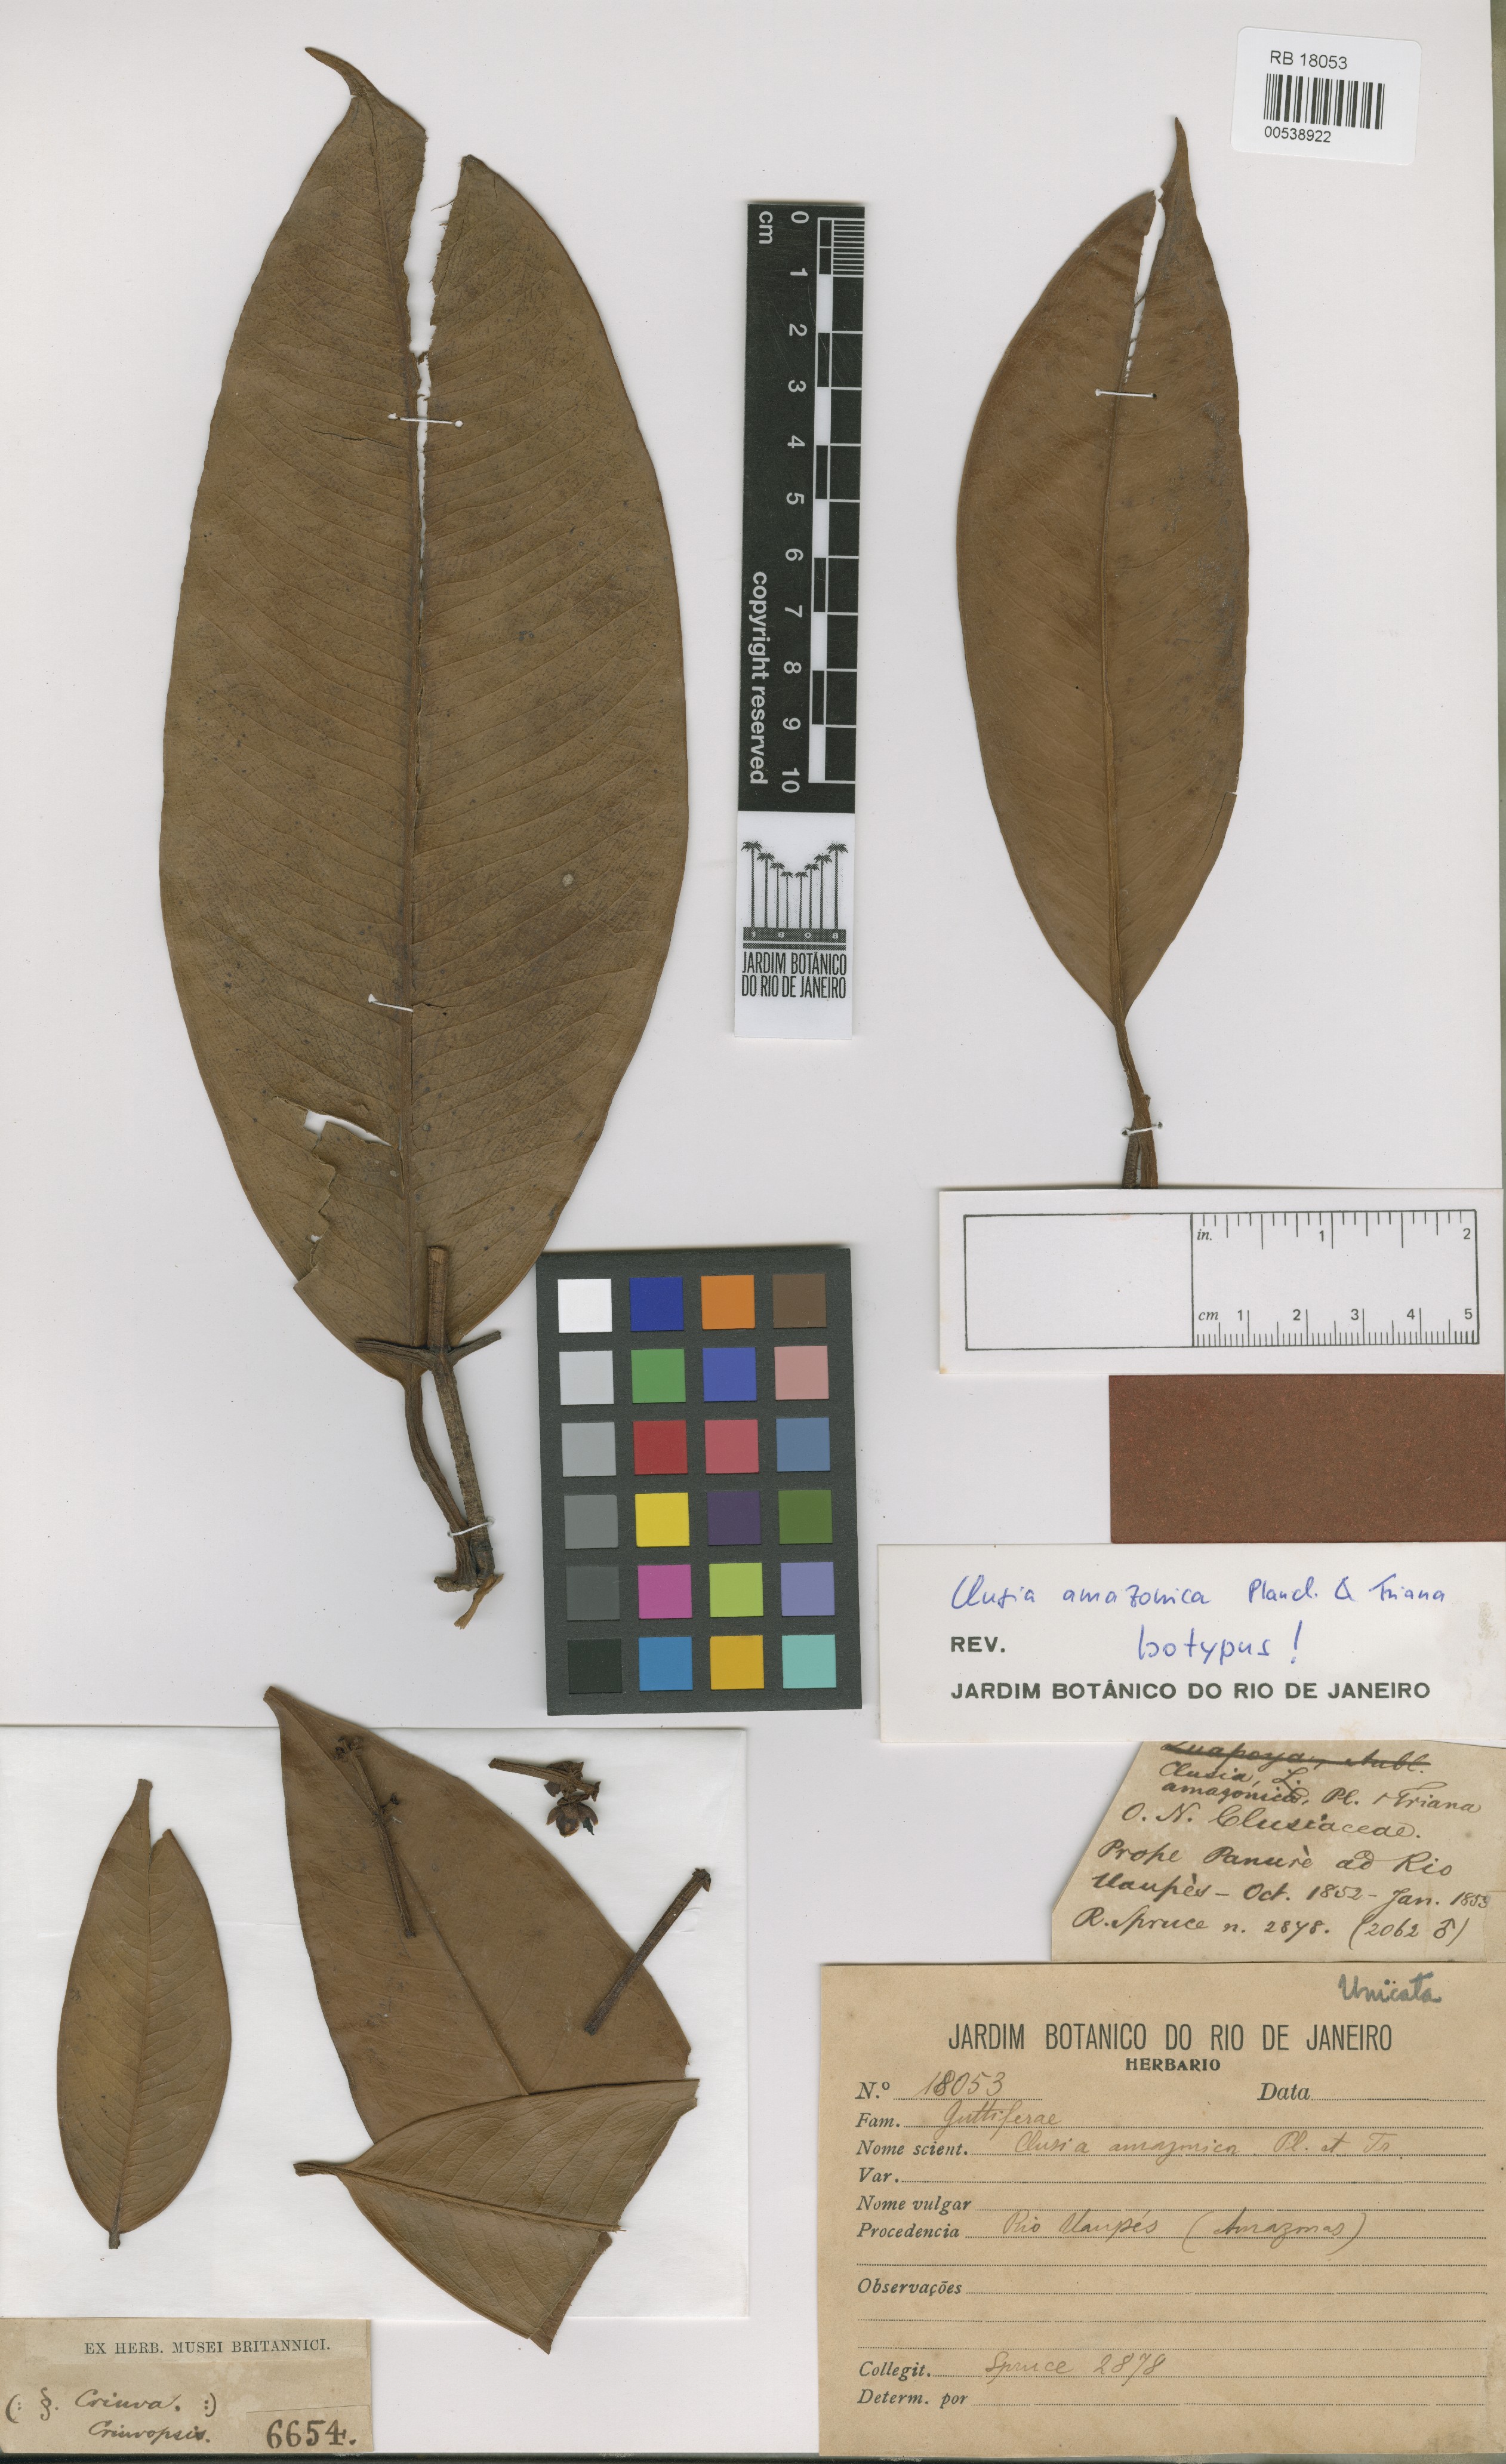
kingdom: Plantae
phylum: Tracheophyta
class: Magnoliopsida
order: Malpighiales
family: Clusiaceae
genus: Clusia
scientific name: Clusia amazonica
